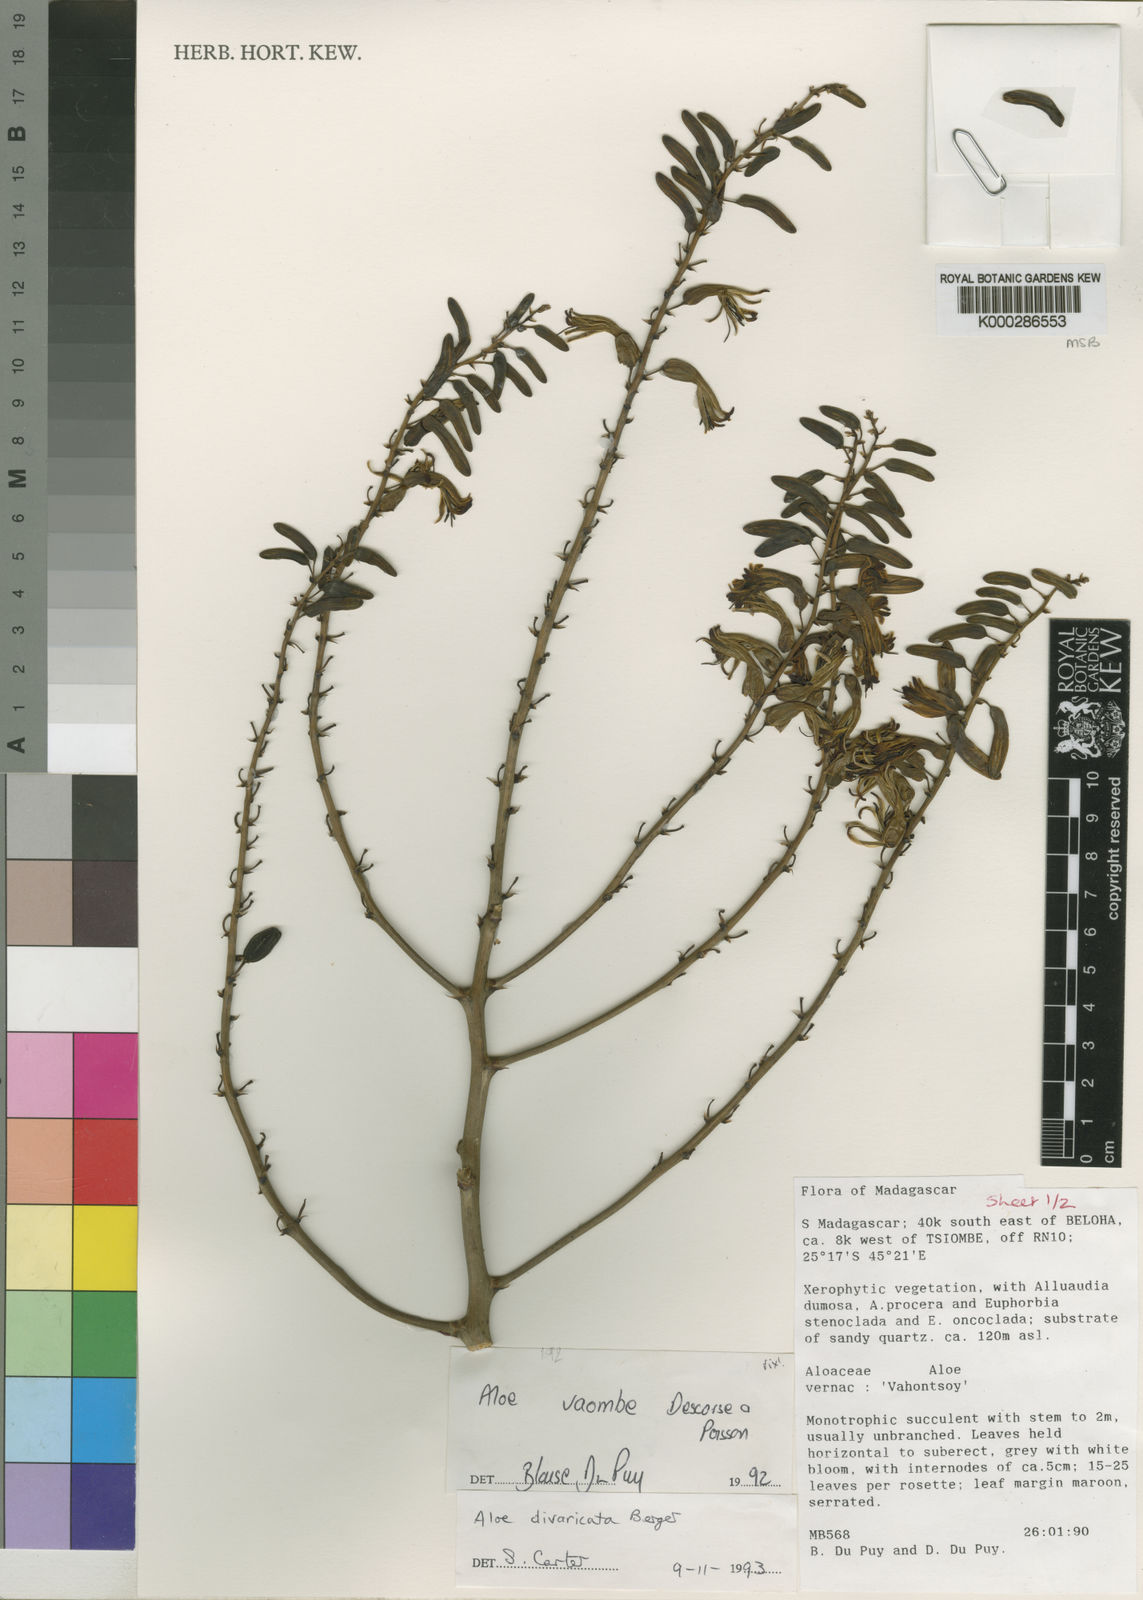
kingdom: Plantae
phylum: Tracheophyta
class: Liliopsida
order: Asparagales
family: Asphodelaceae
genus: Aloe
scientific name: Aloe divaricata
